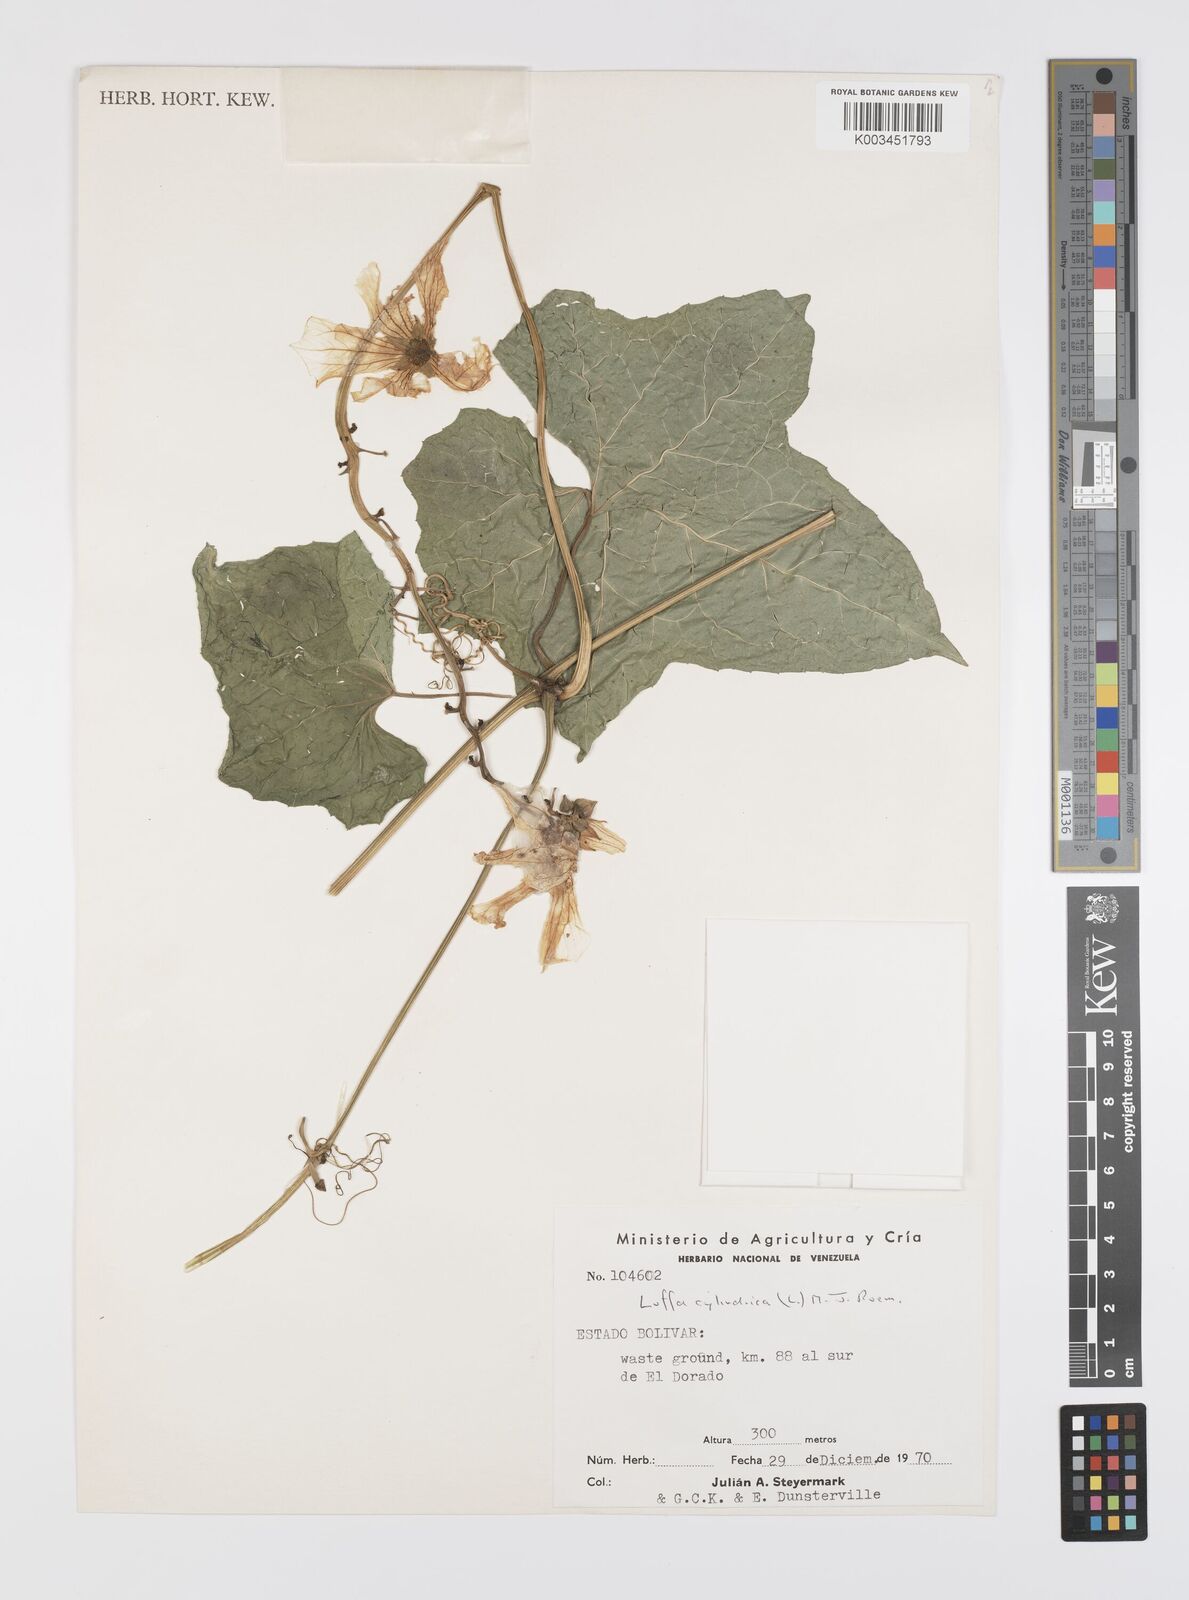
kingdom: Plantae
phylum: Tracheophyta
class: Magnoliopsida
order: Cucurbitales
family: Cucurbitaceae
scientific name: Cucurbitaceae
